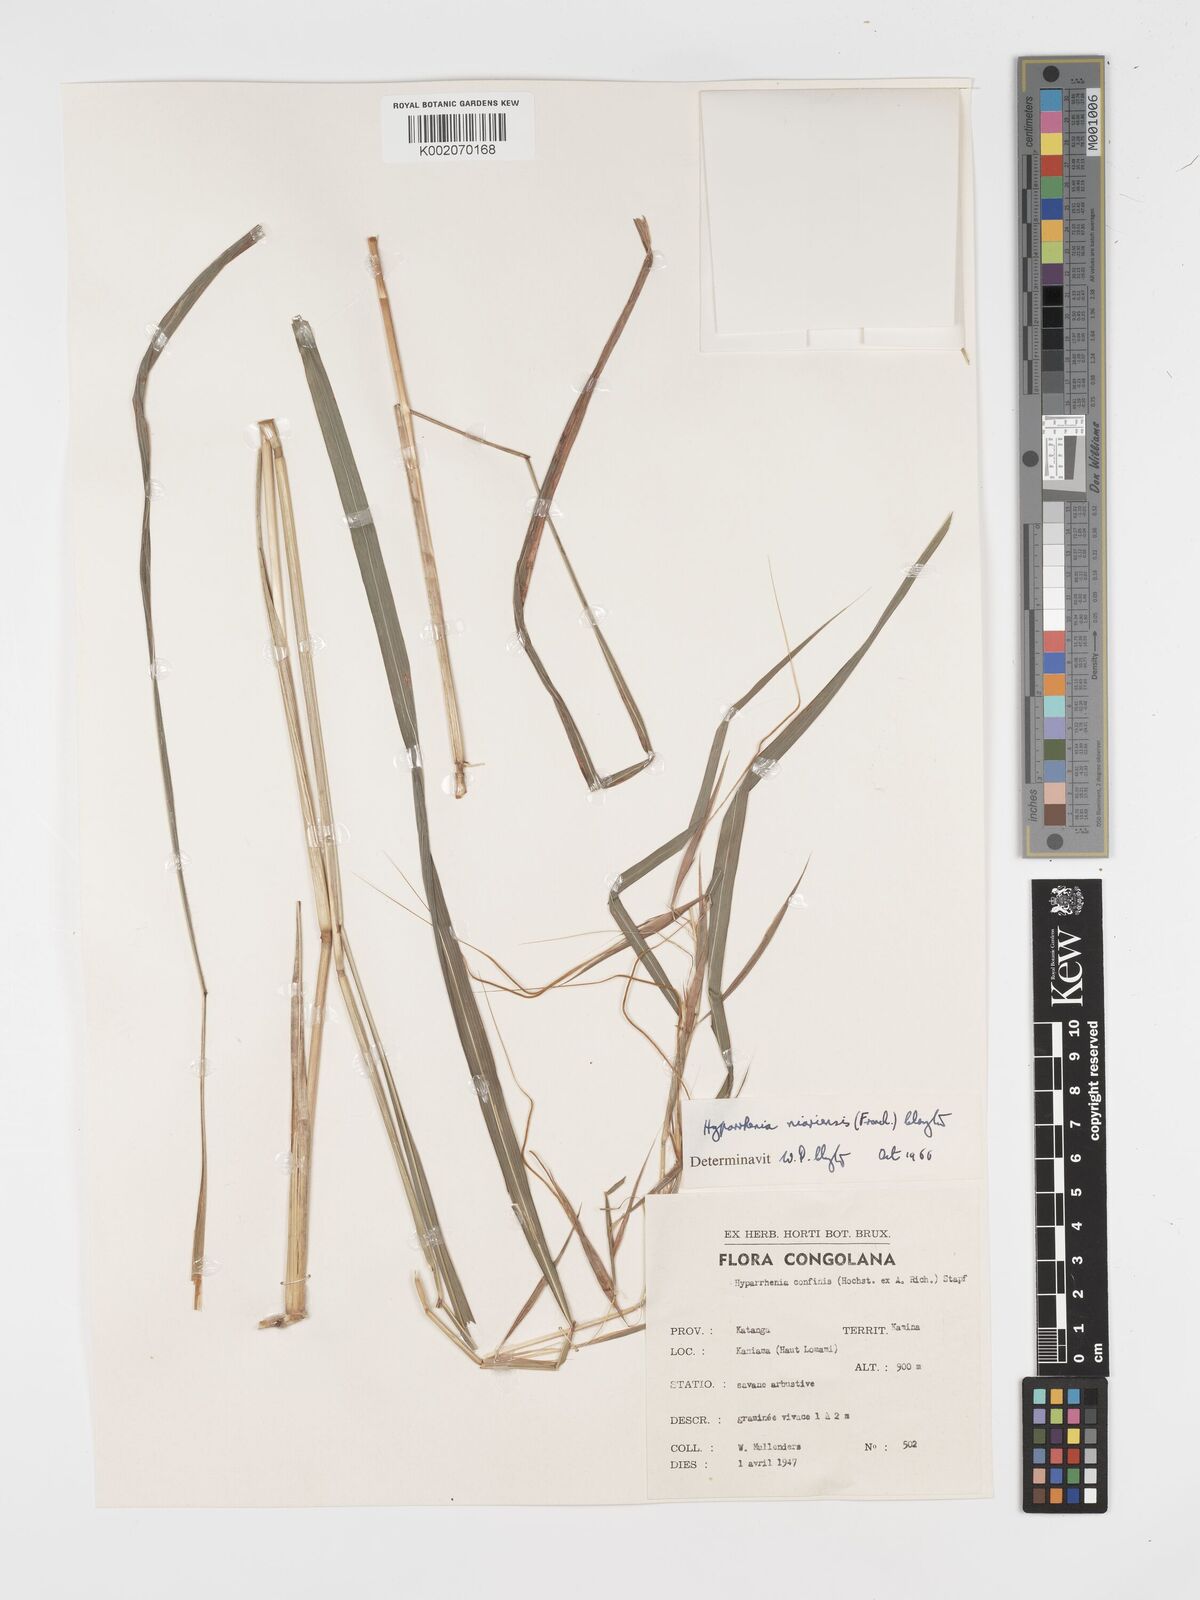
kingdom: Plantae
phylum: Tracheophyta
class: Liliopsida
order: Poales
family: Poaceae
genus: Hyparrhenia
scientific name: Hyparrhenia niariensis
